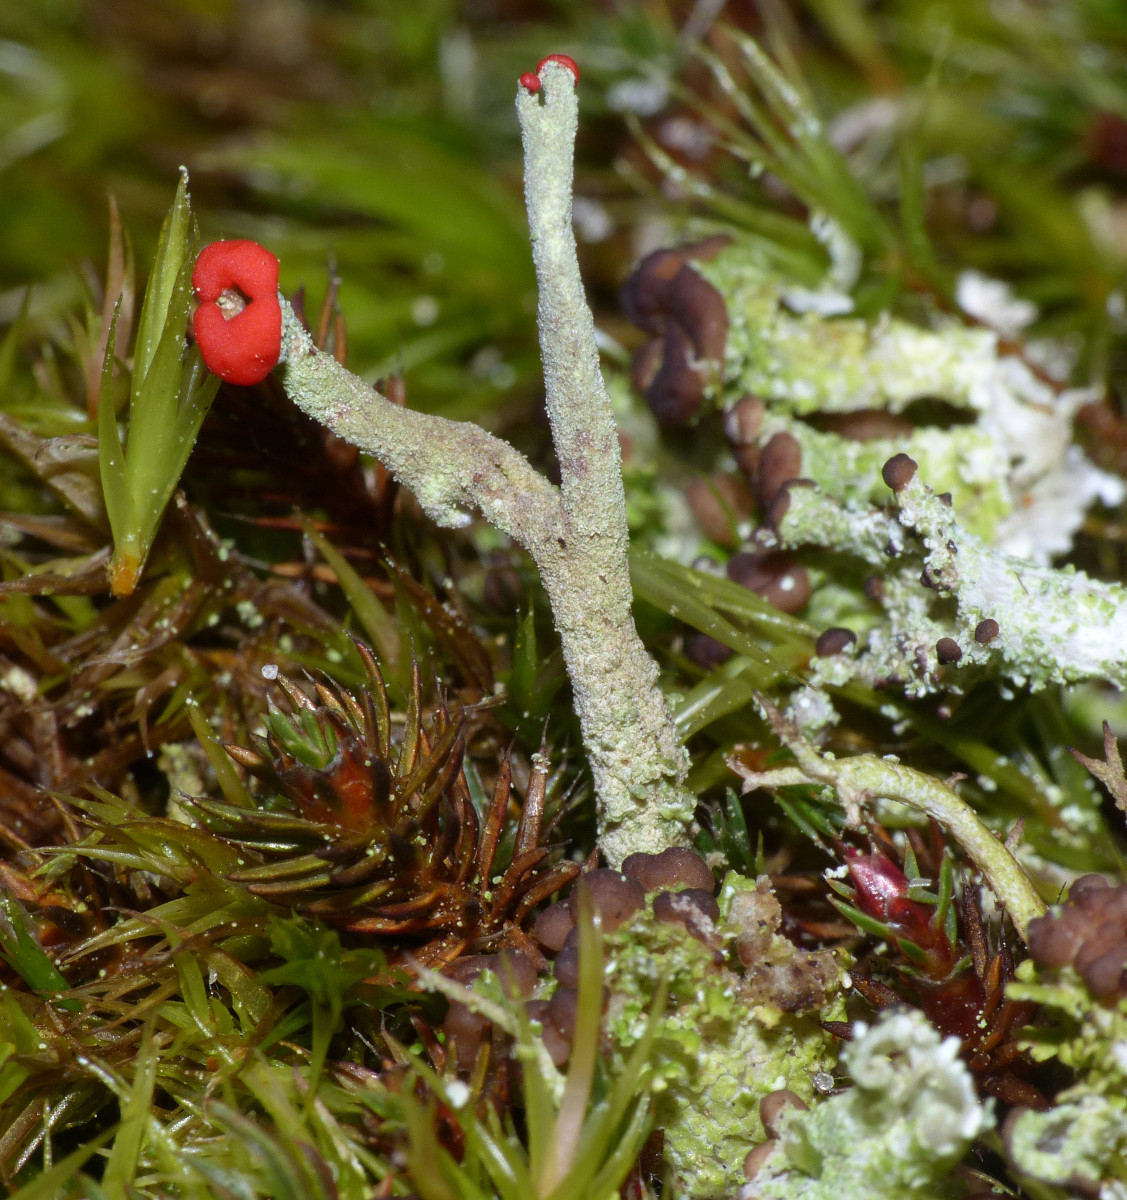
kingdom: Fungi
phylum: Ascomycota
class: Lecanoromycetes
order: Lecanorales
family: Cladoniaceae
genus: Cladonia
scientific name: Cladonia macilenta
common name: indsvunden bægerlav
